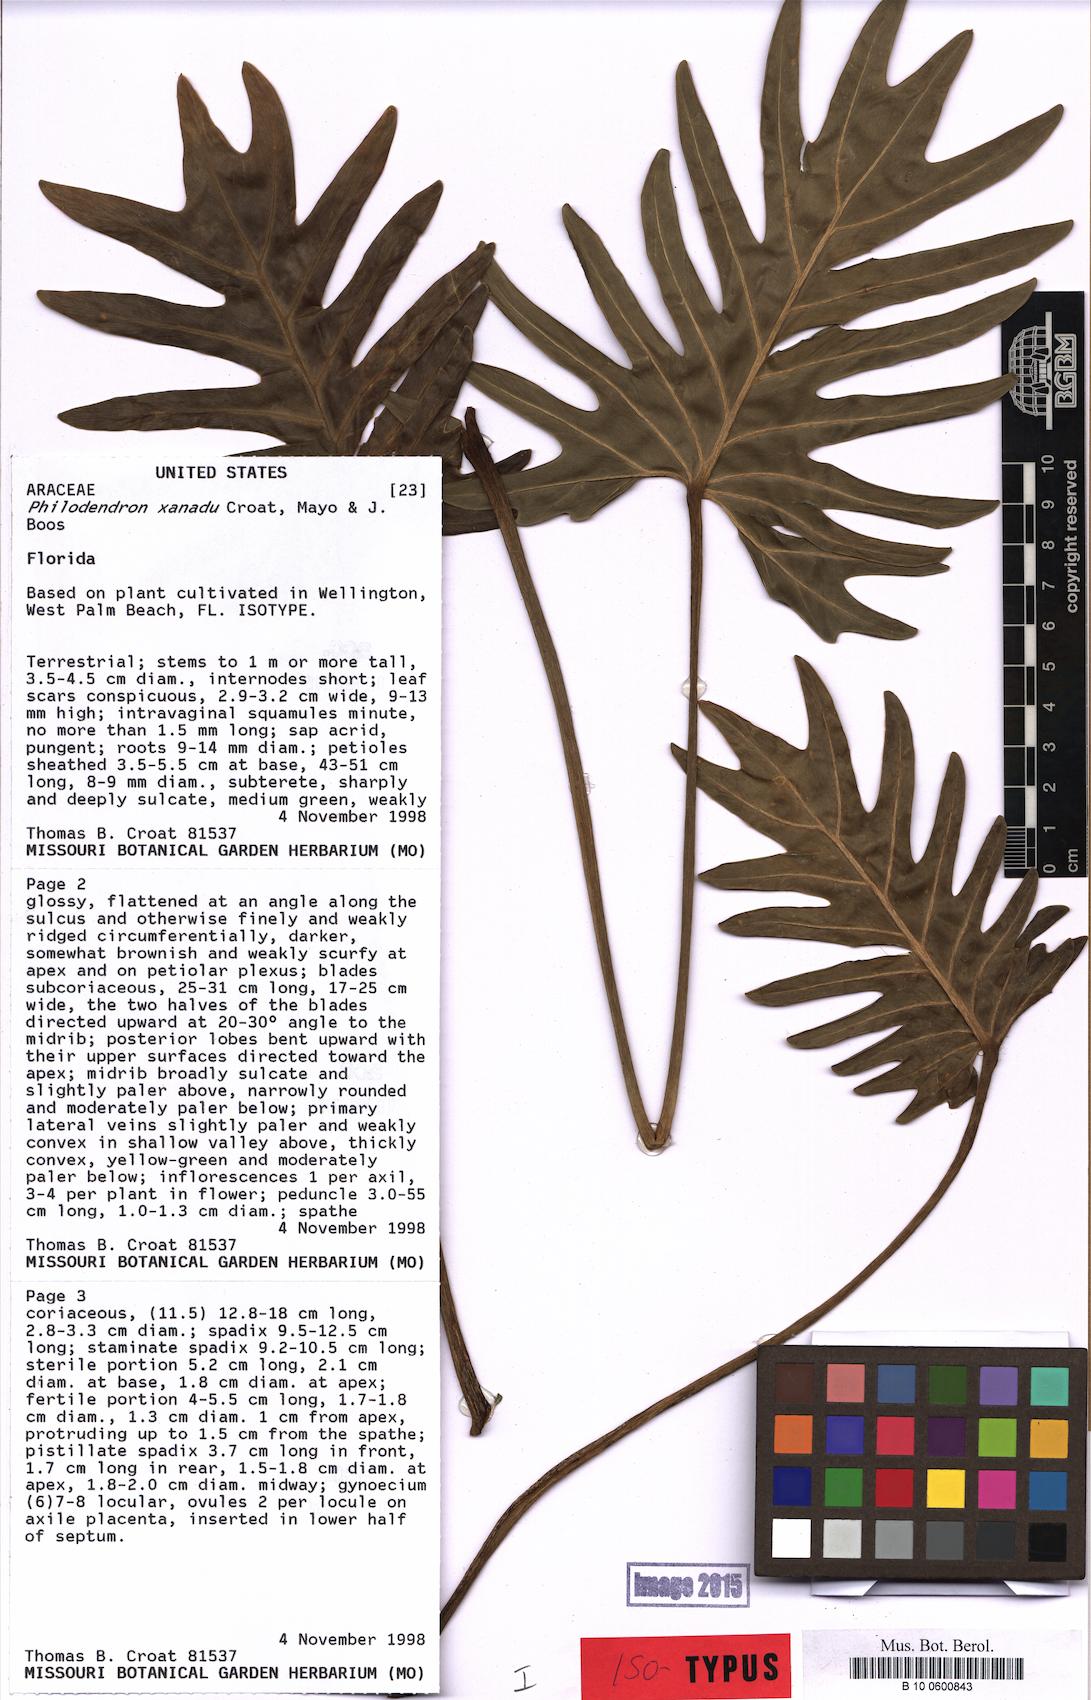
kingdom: Plantae
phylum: Tracheophyta
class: Liliopsida
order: Alismatales
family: Araceae
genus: Thaumatophyllum
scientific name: Thaumatophyllum xanadu
